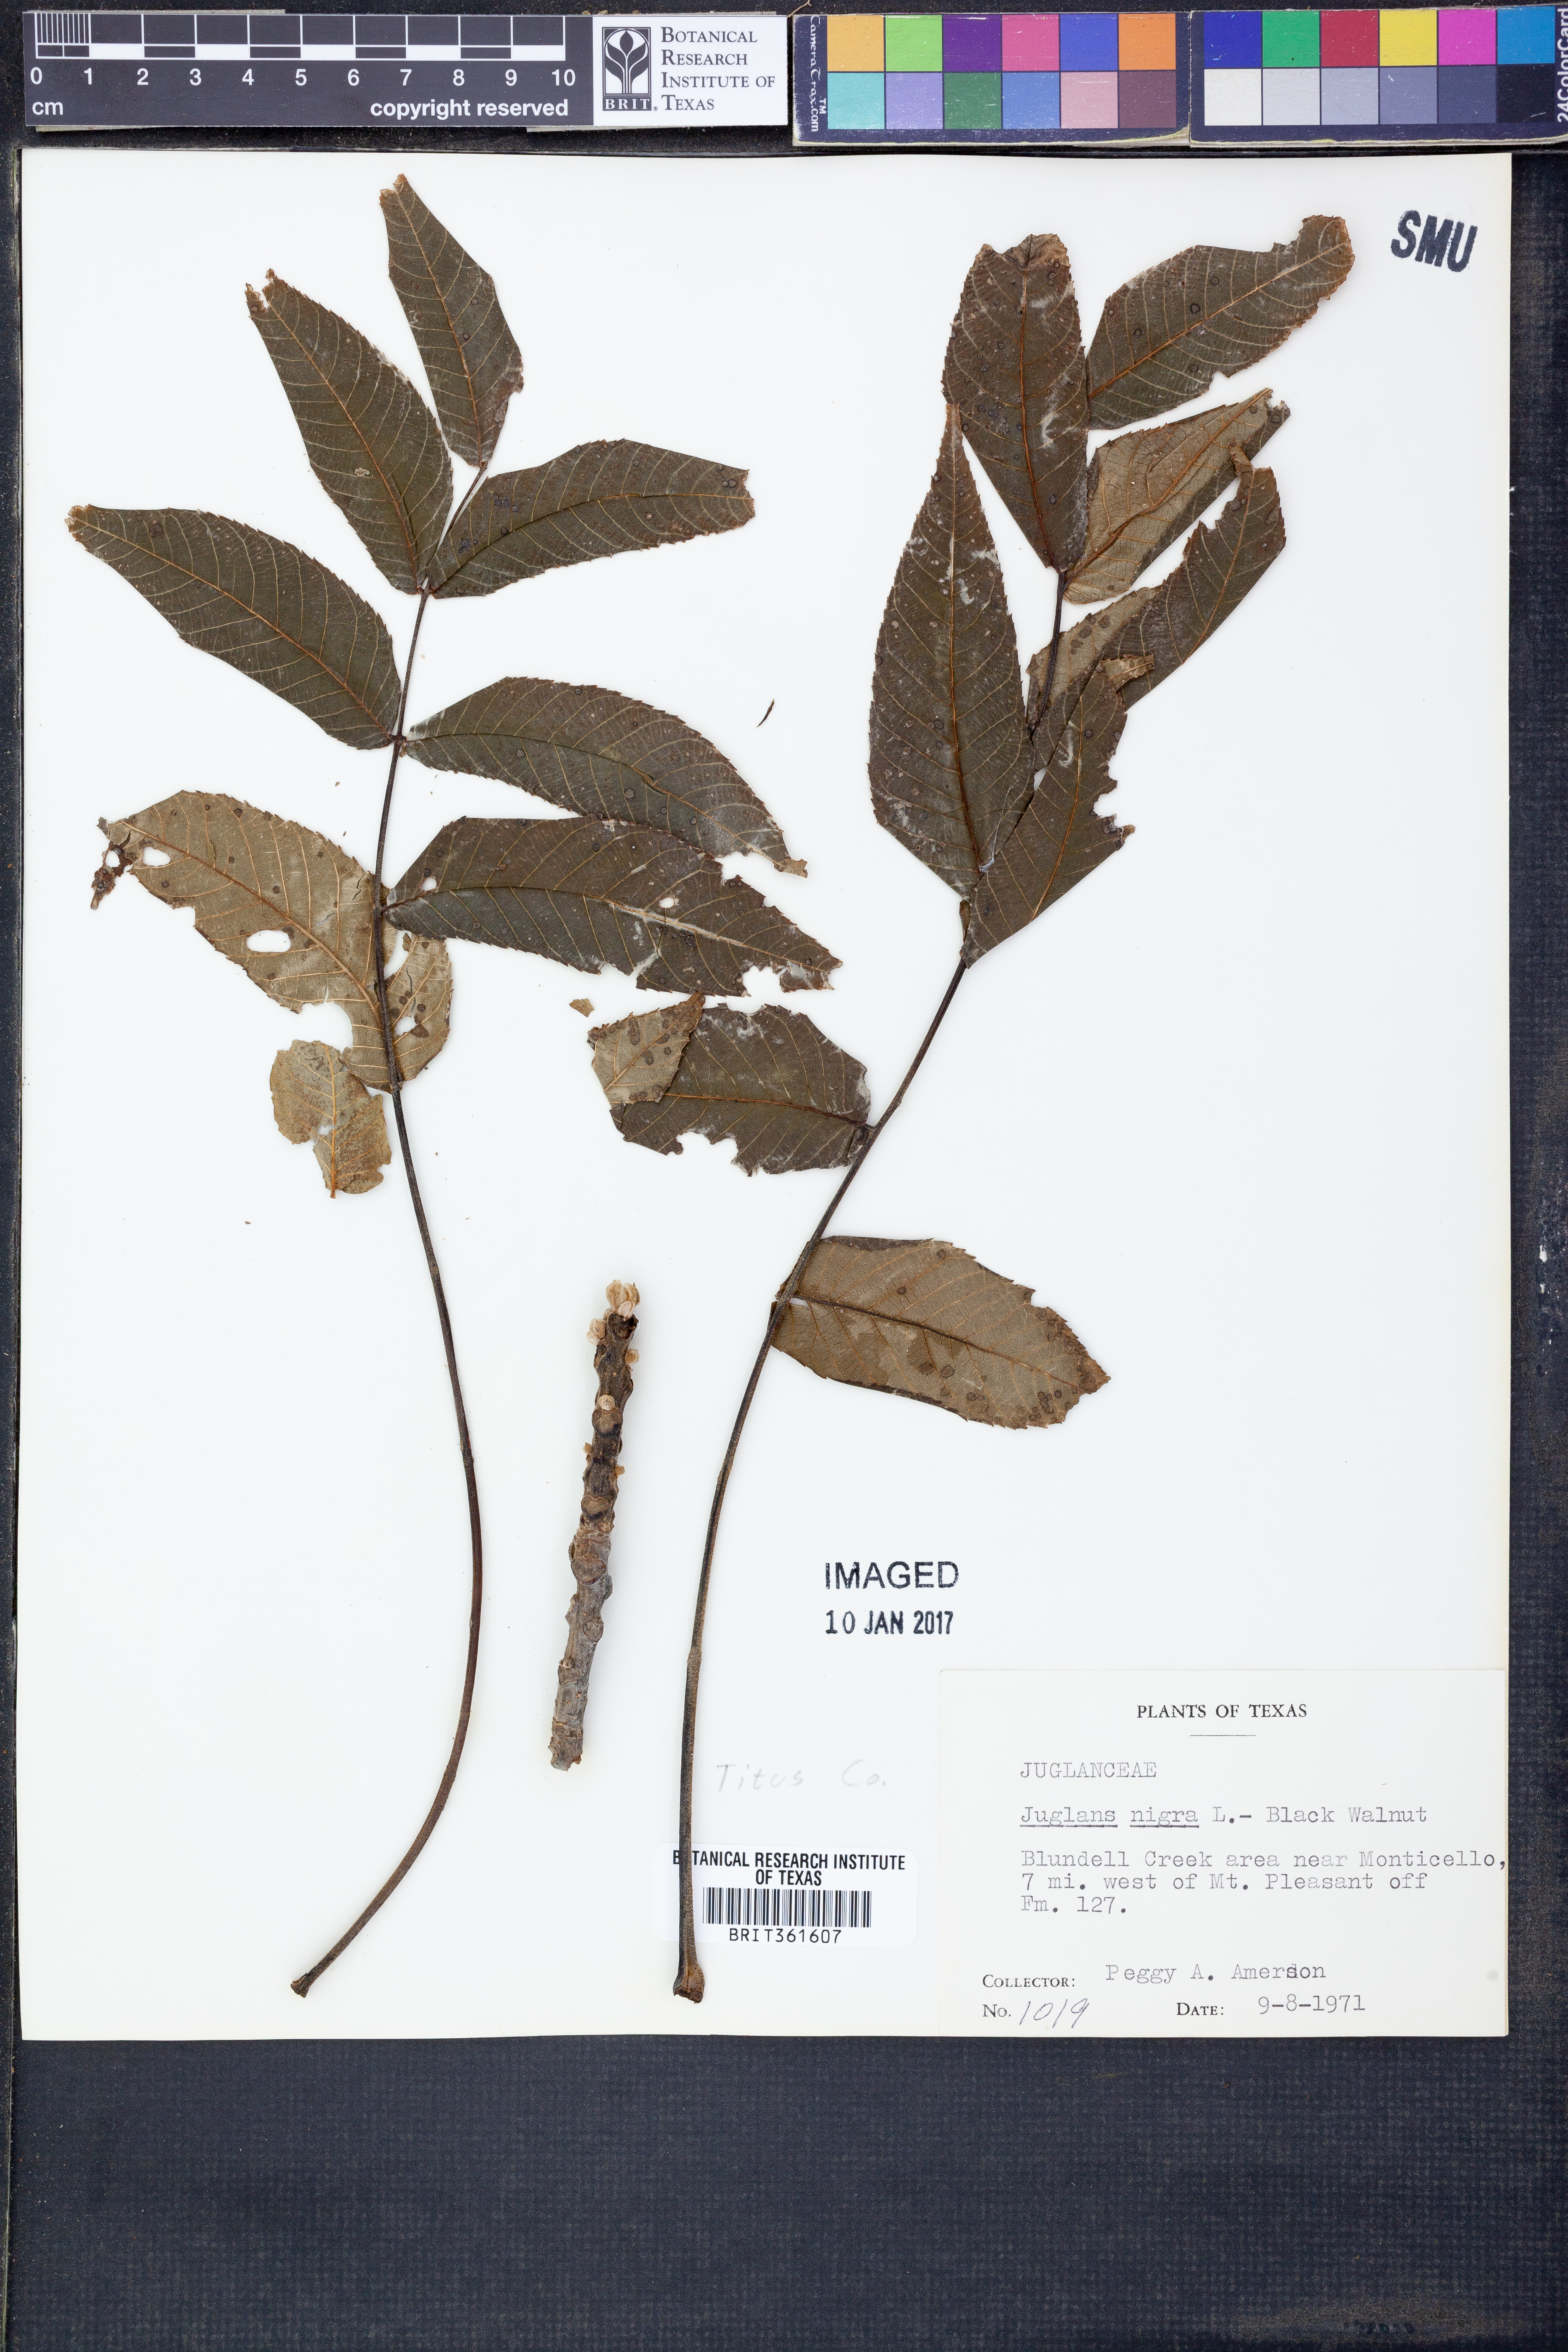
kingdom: Plantae
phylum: Tracheophyta
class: Magnoliopsida
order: Fagales
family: Juglandaceae
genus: Juglans
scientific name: Juglans nigra
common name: Black walnut
